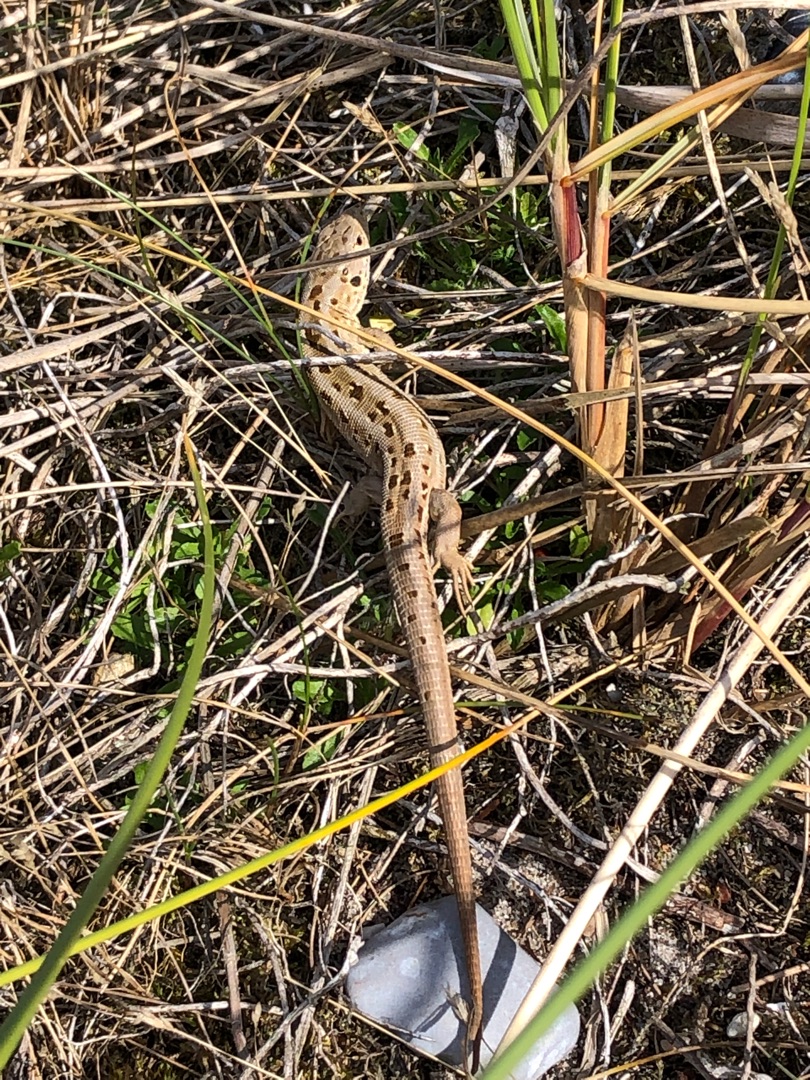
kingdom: Animalia
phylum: Chordata
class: Squamata
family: Lacertidae
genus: Lacerta
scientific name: Lacerta agilis
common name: Markfirben
